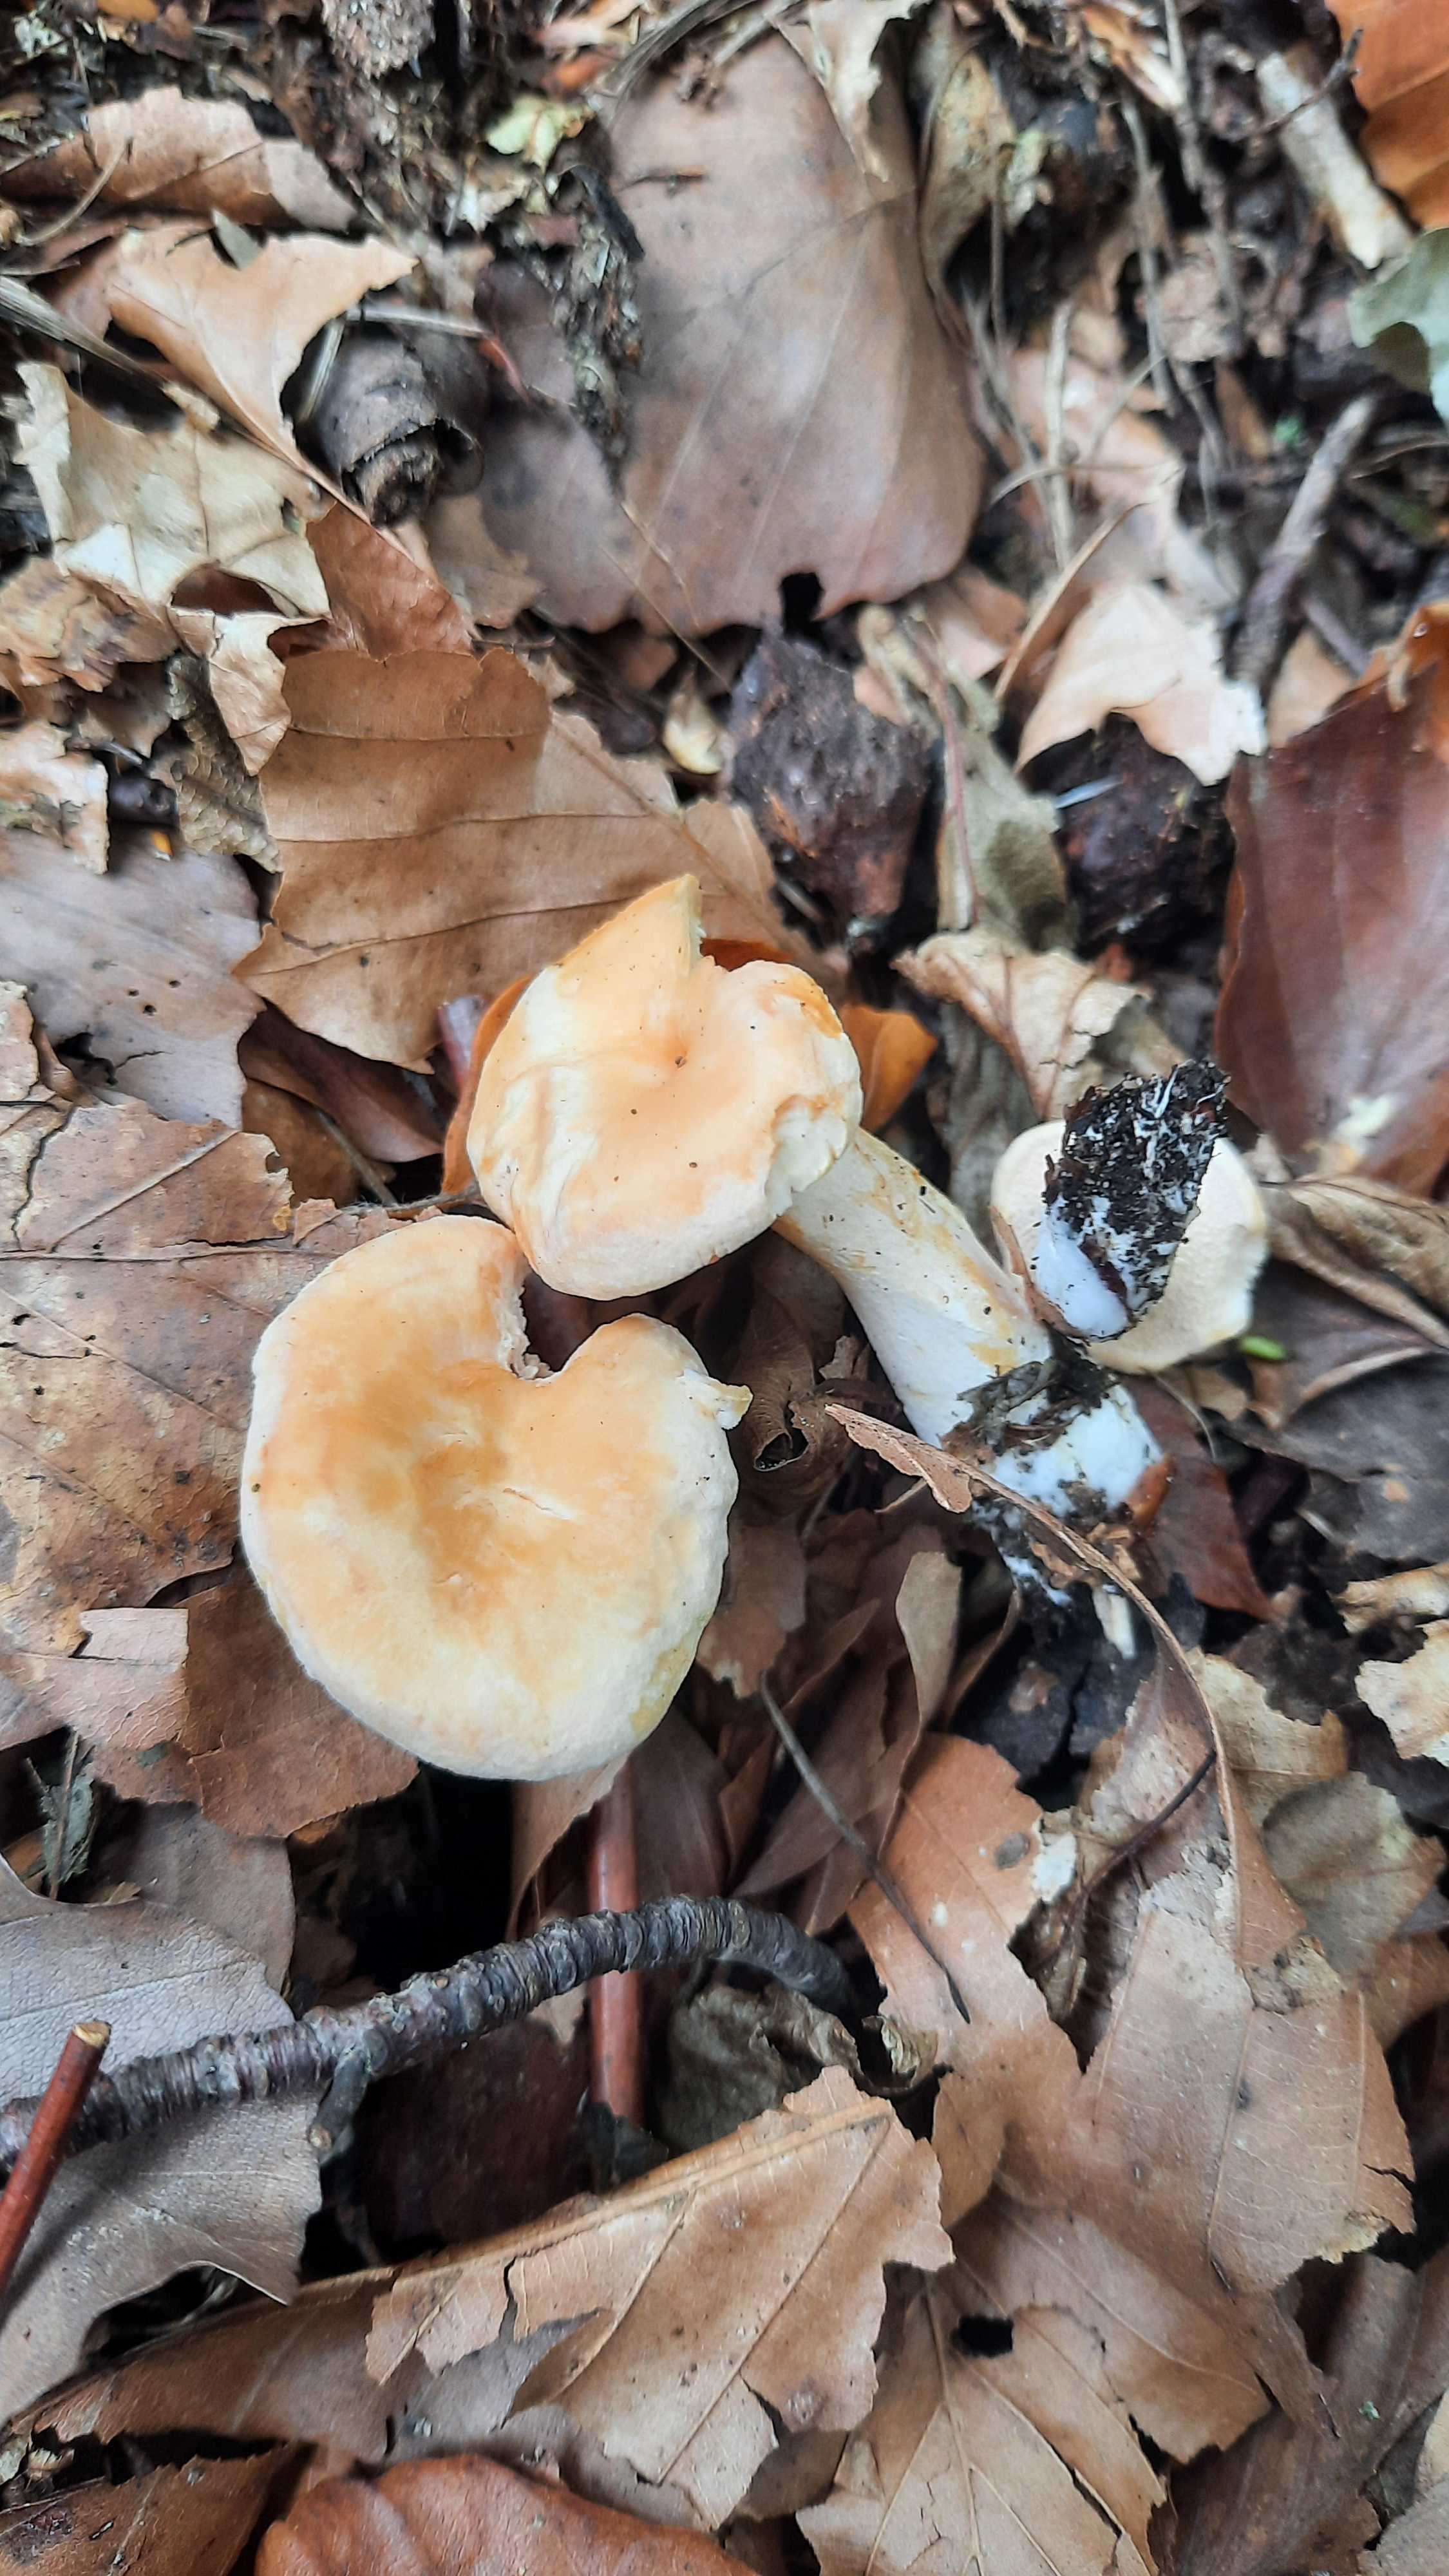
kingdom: Fungi
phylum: Basidiomycota
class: Agaricomycetes
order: Cantharellales
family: Hydnaceae
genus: Hydnum
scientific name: Hydnum
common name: pigsvamp
